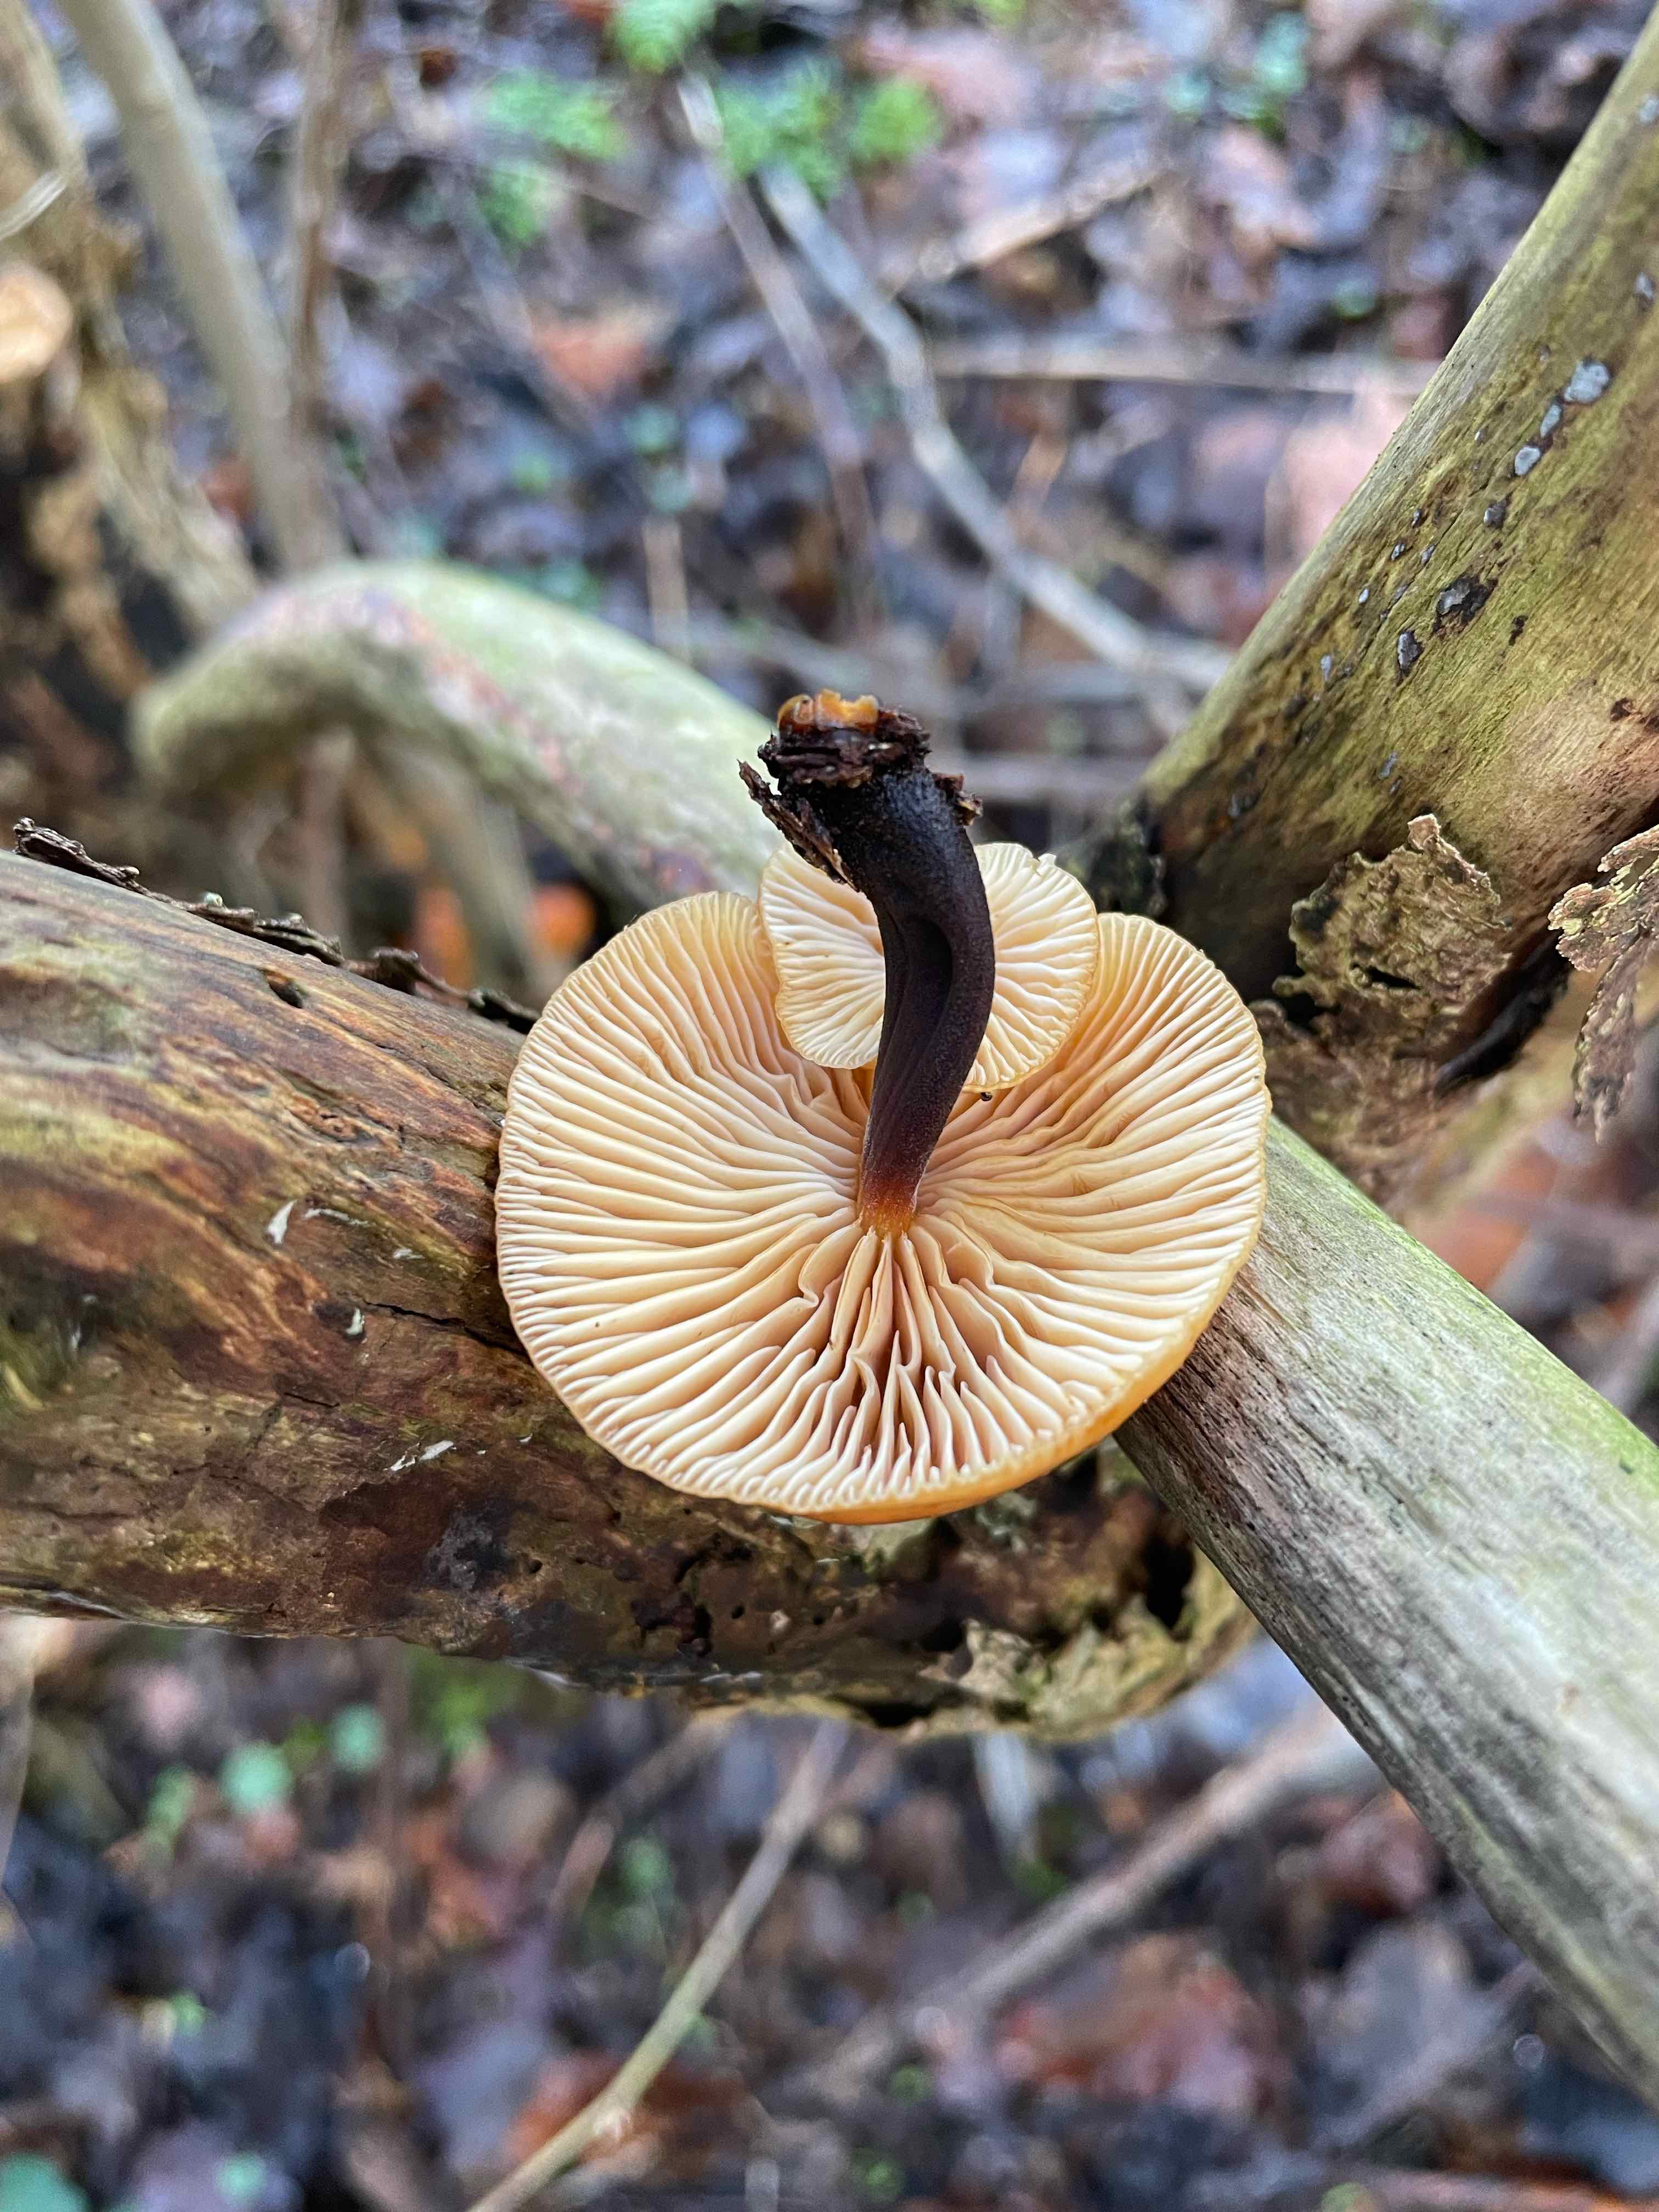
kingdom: Fungi
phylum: Basidiomycota
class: Agaricomycetes
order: Agaricales
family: Physalacriaceae
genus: Flammulina
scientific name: Flammulina velutipes
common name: gul fløjlsfod
